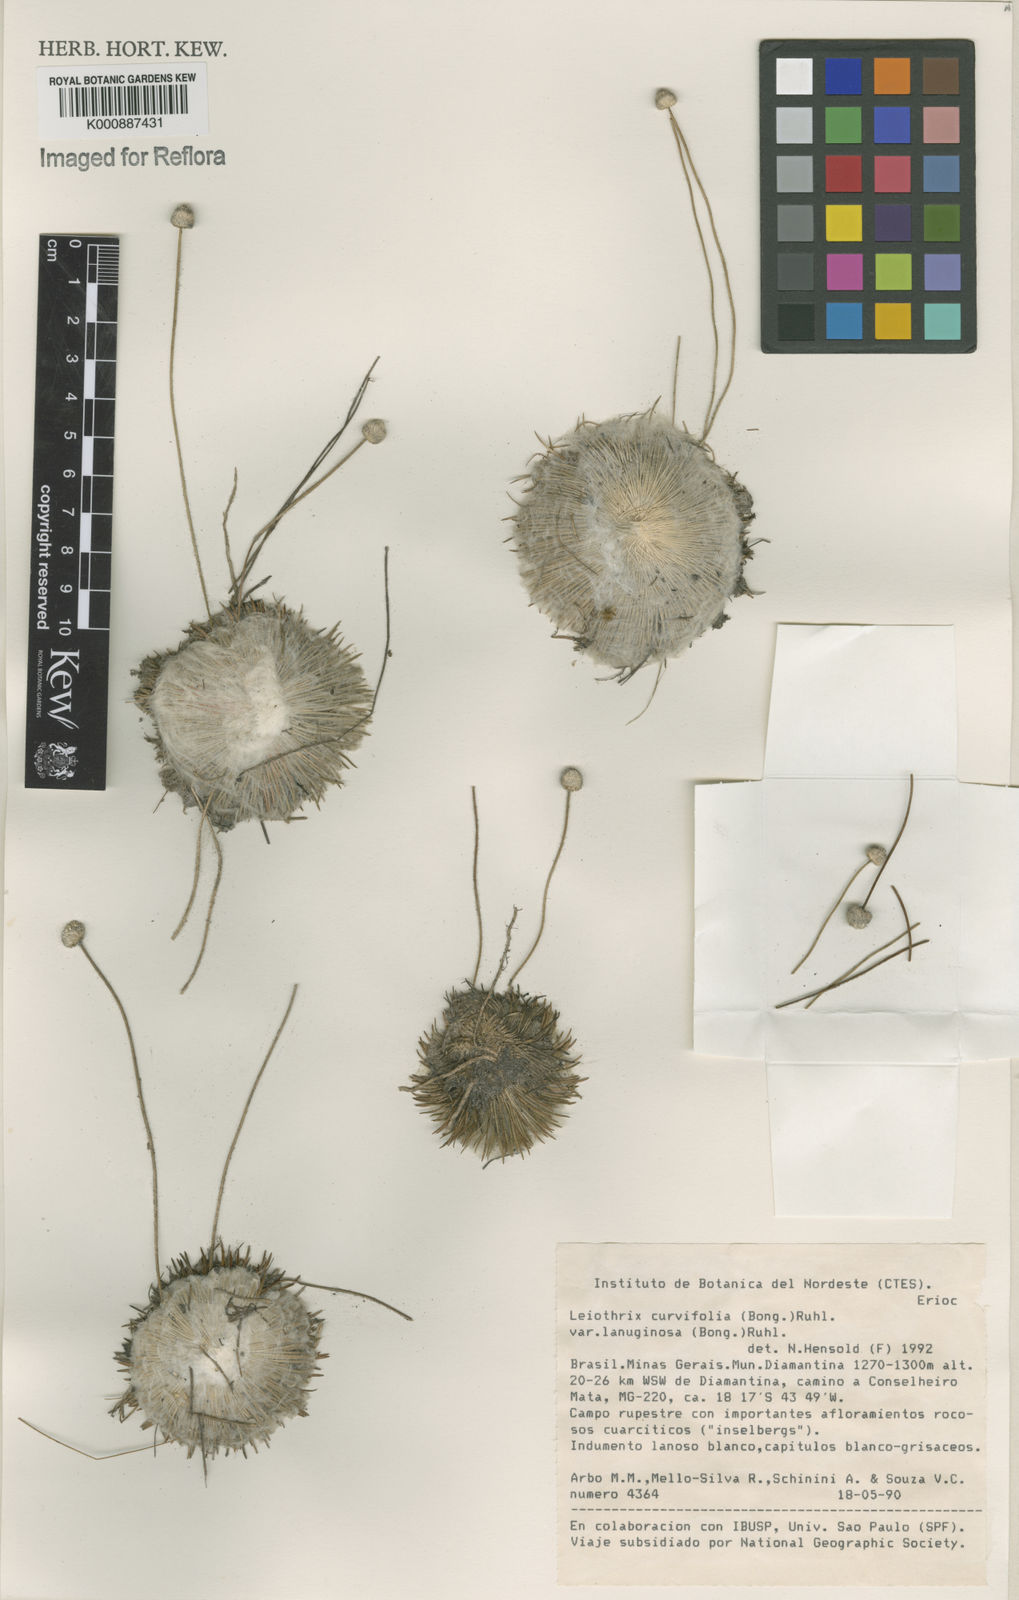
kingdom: Plantae
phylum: Tracheophyta
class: Liliopsida
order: Poales
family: Eriocaulaceae
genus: Leiothrix
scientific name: Leiothrix curvifolia
